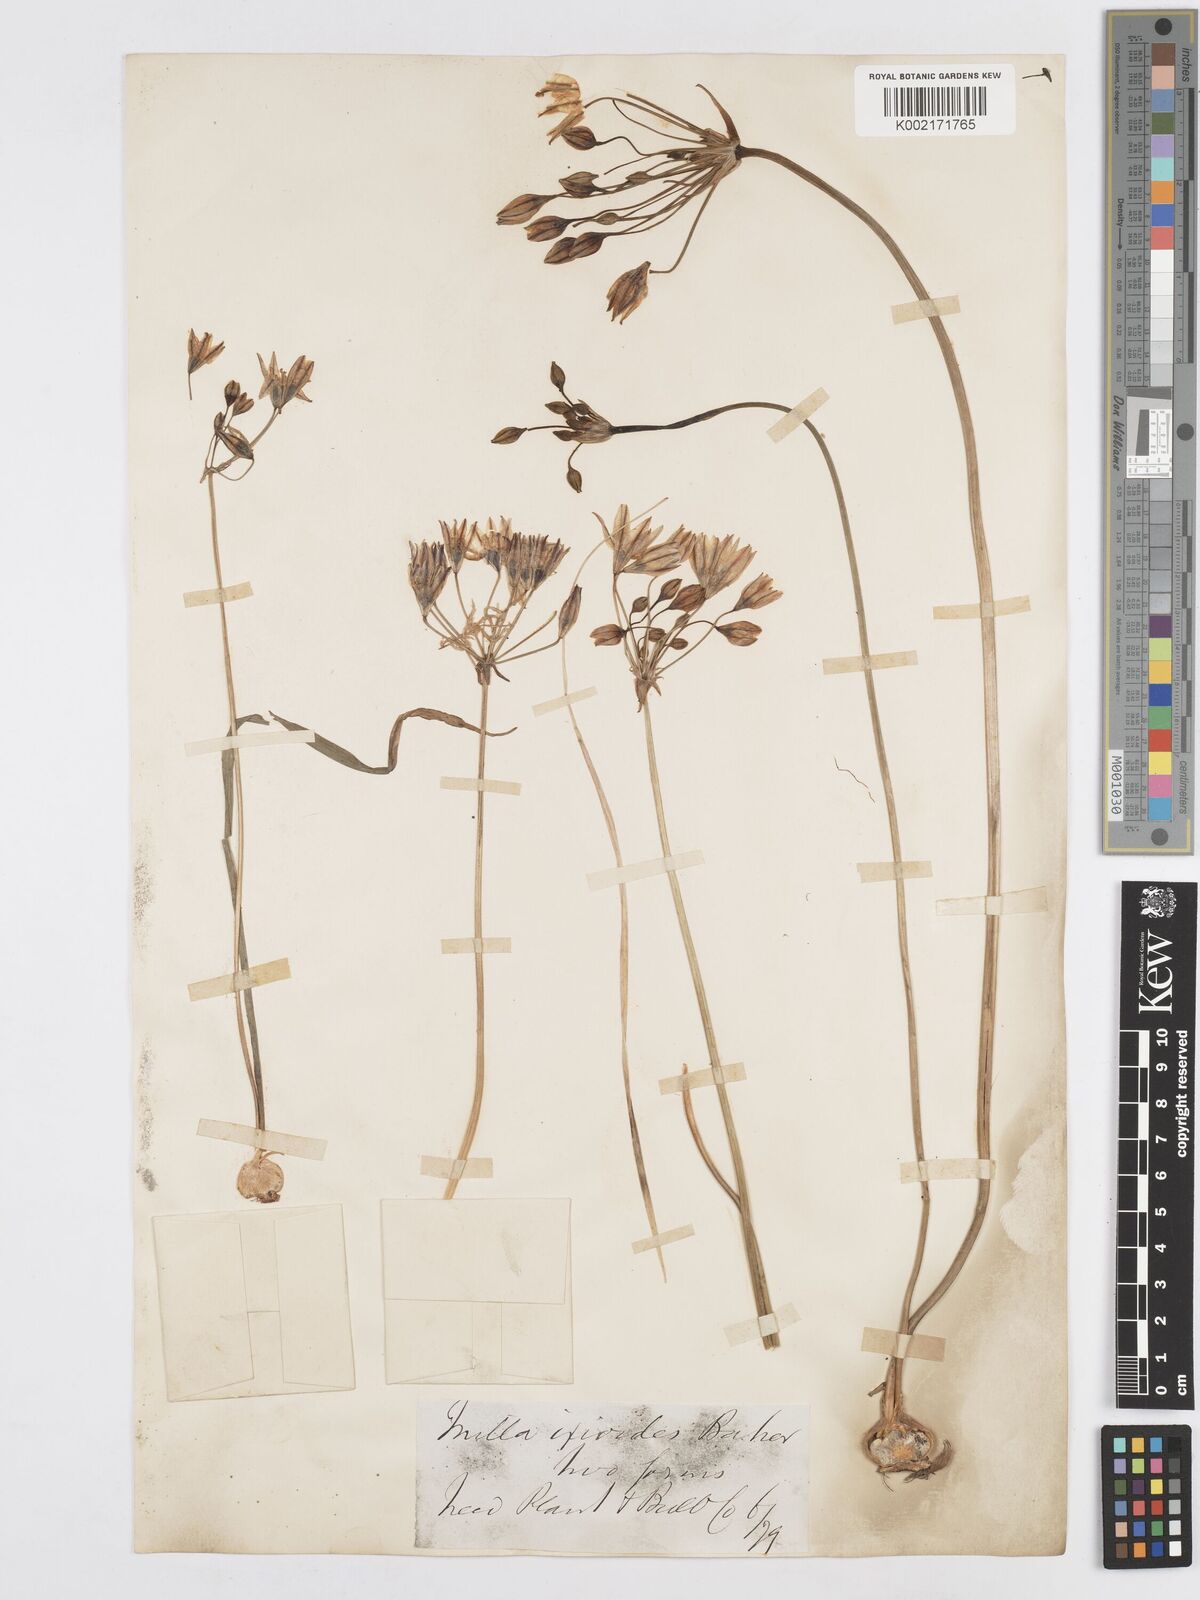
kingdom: Plantae
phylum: Tracheophyta
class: Liliopsida
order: Asparagales
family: Asparagaceae
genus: Triteleia
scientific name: Triteleia ixioides
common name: Yellow-brodiaea
